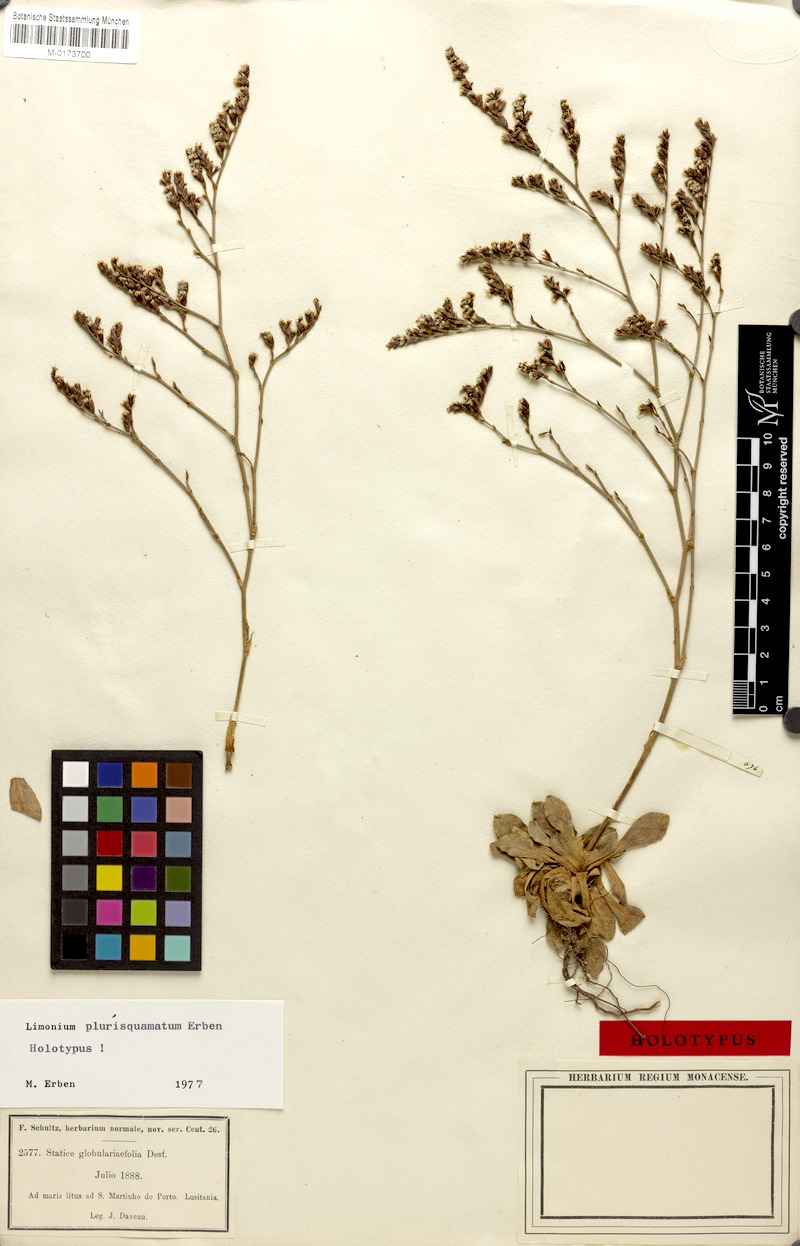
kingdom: Plantae
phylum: Tracheophyta
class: Magnoliopsida
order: Caryophyllales
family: Plumbaginaceae
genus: Limonium
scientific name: Limonium plurisquamatum
